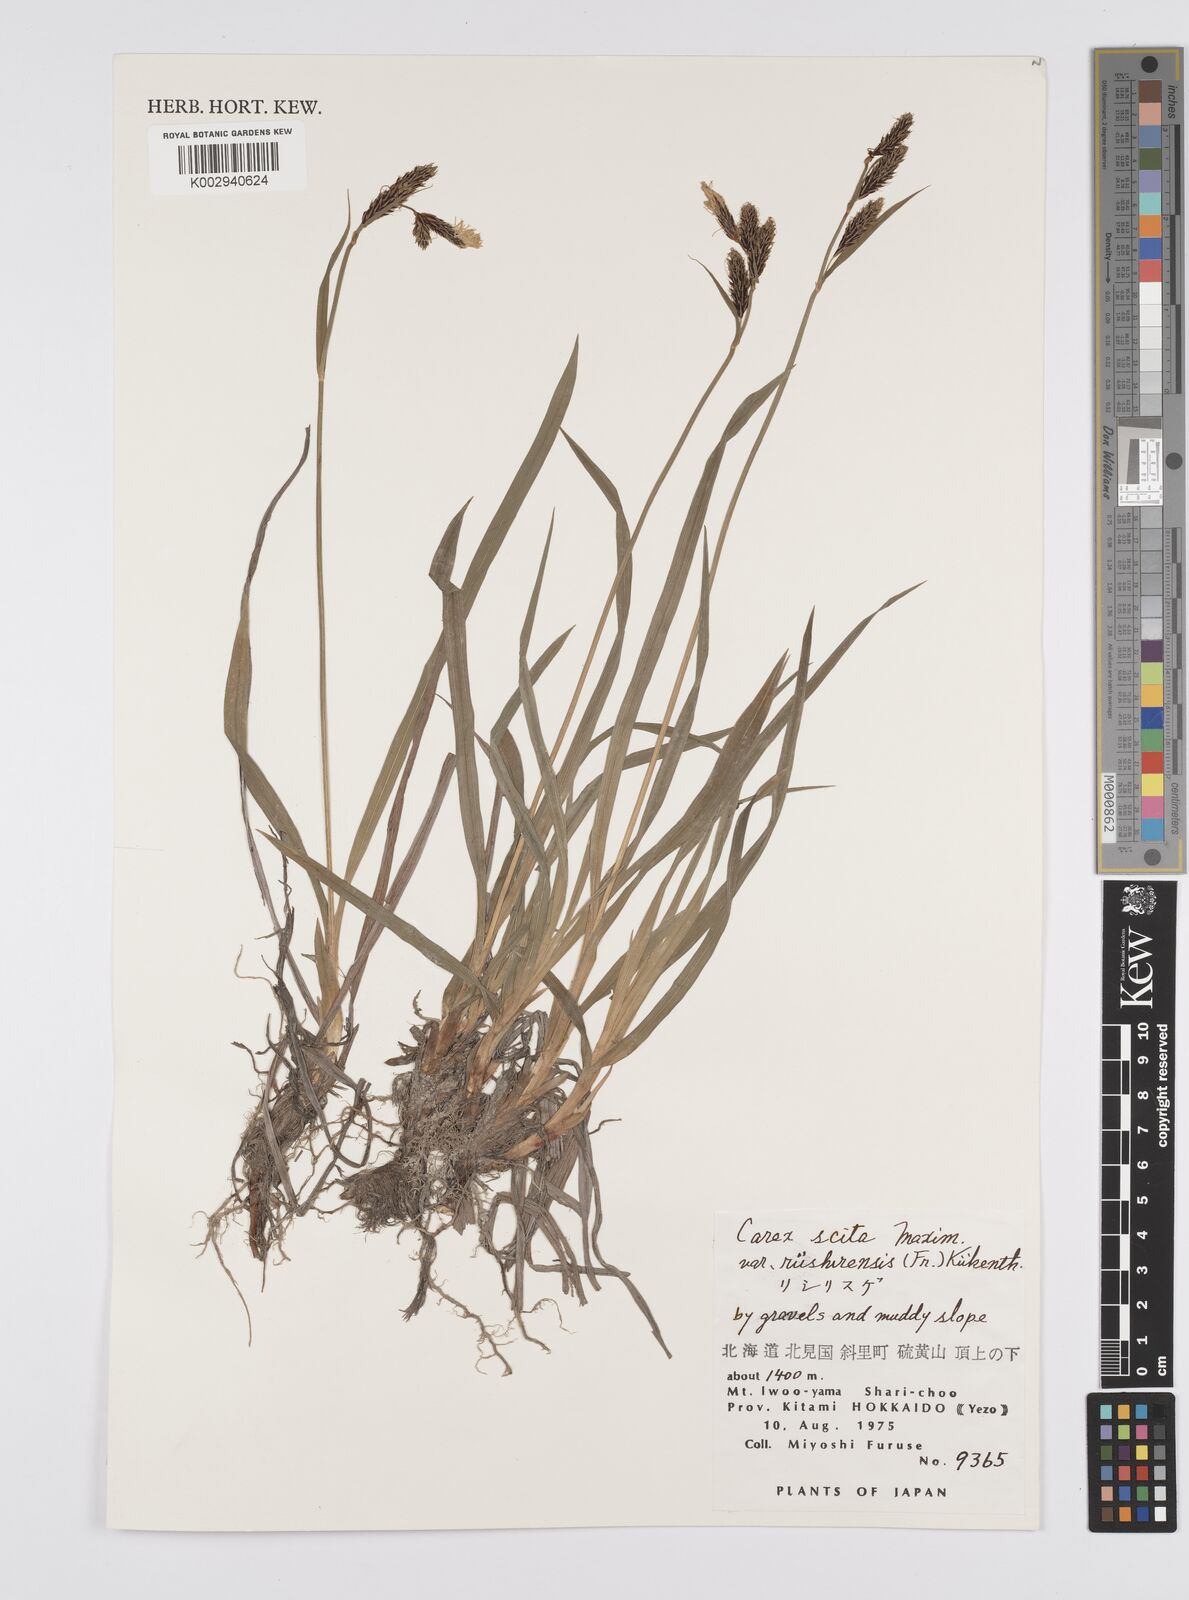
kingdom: Plantae
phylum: Tracheophyta
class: Liliopsida
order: Poales
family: Cyperaceae
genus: Carex
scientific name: Carex scita
